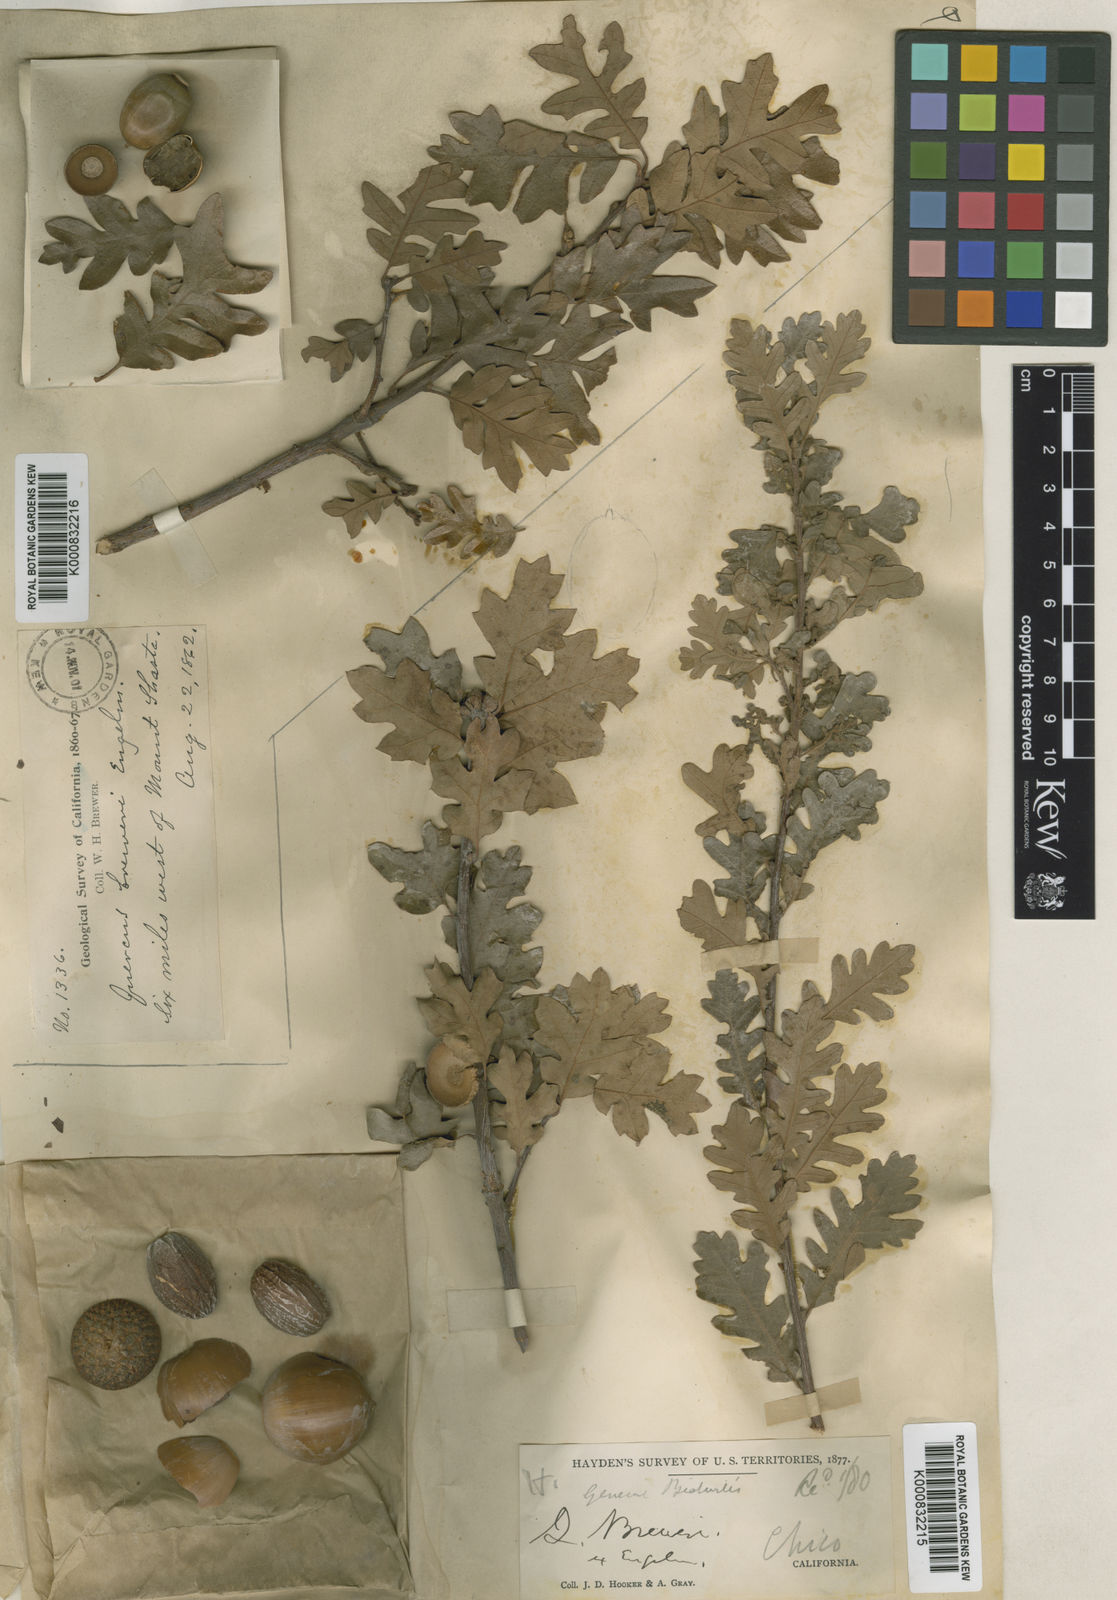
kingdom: Plantae
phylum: Tracheophyta
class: Magnoliopsida
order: Fagales
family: Fagaceae
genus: Quercus
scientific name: Quercus garryana
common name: Garry oak
